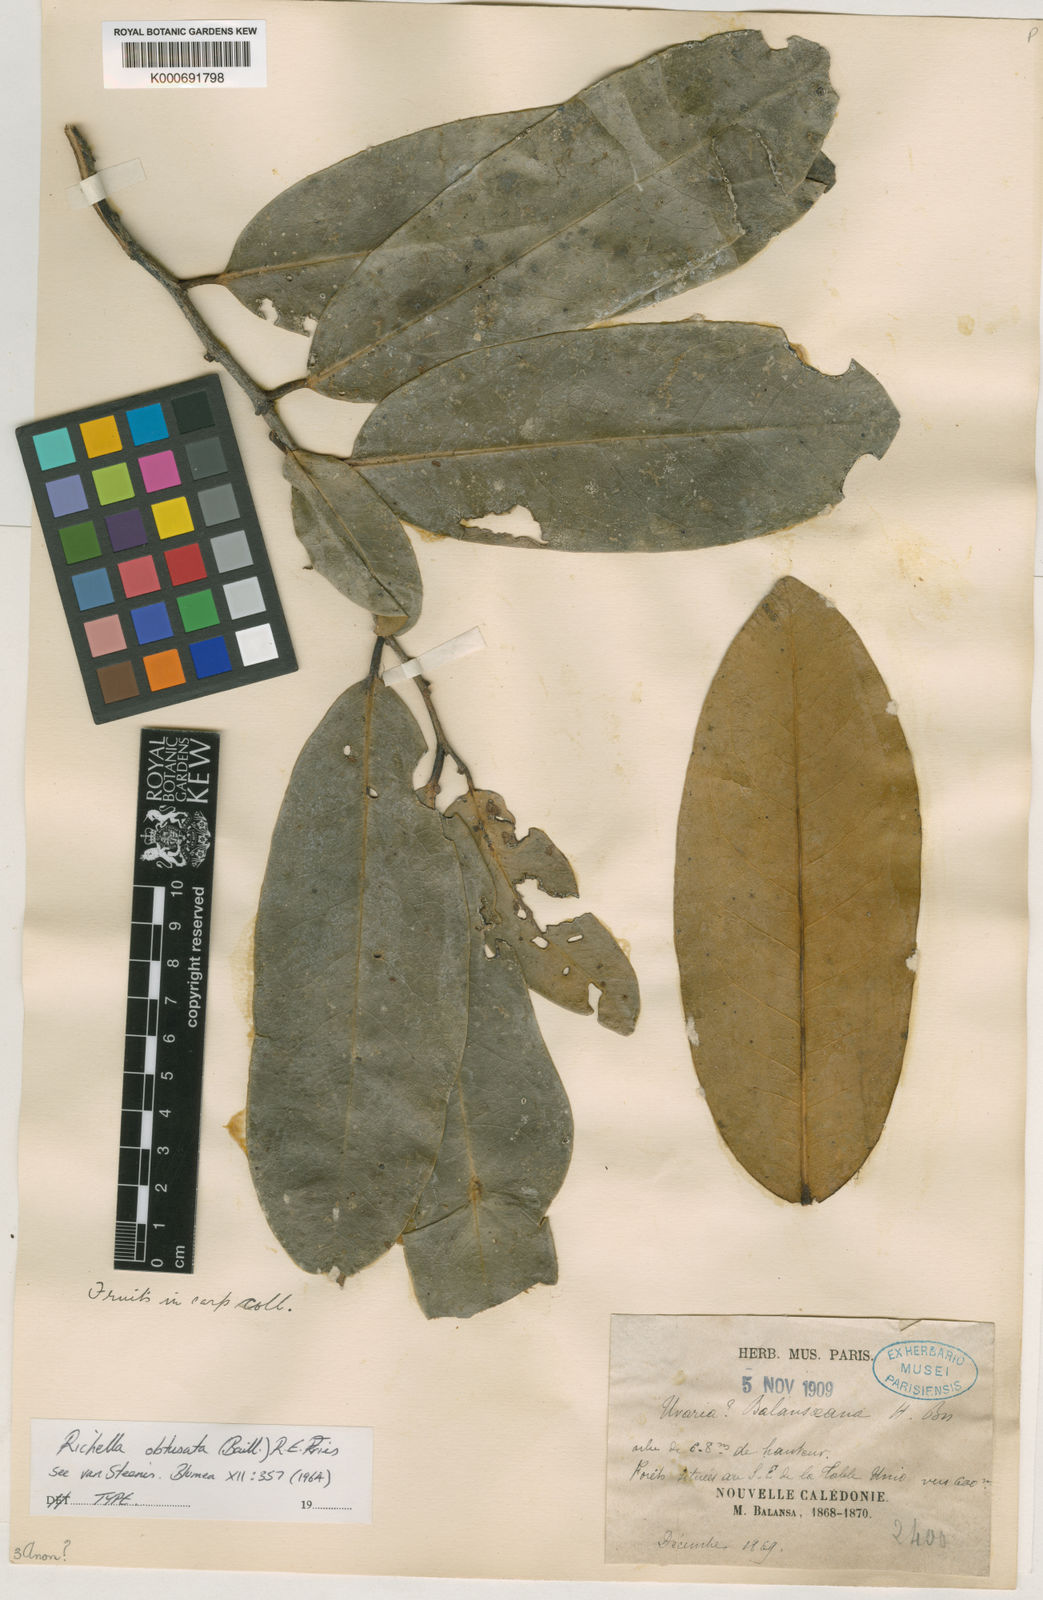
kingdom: Plantae
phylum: Tracheophyta
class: Magnoliopsida
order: Magnoliales
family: Annonaceae
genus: Richella
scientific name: Richella obtusata
